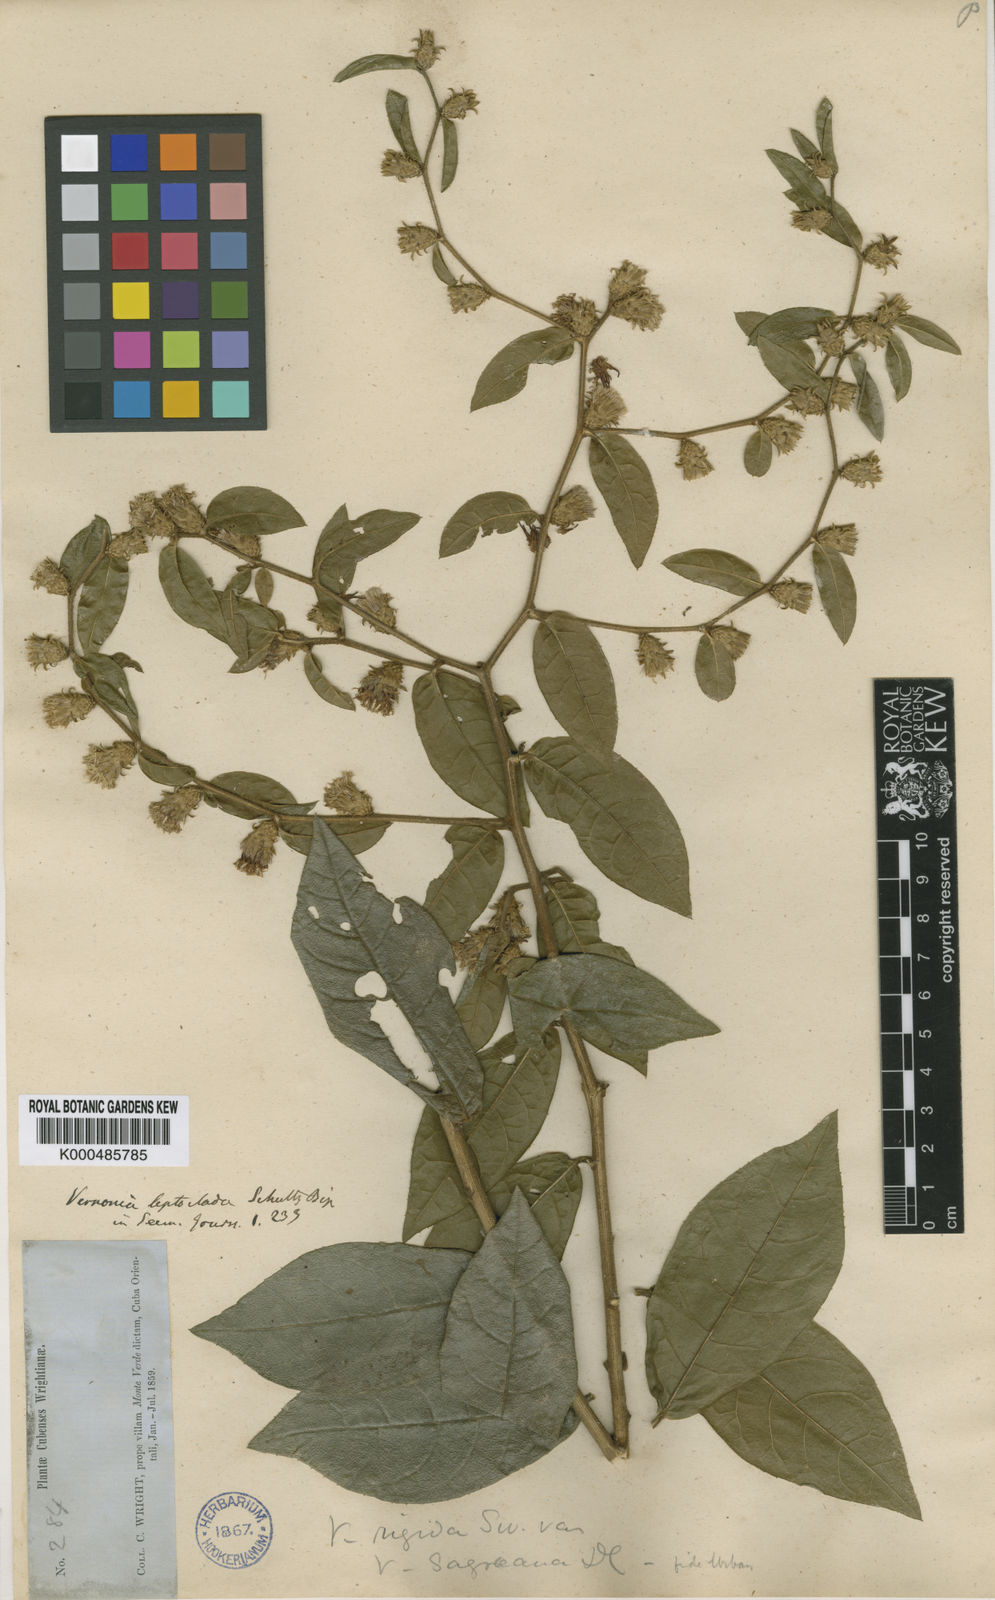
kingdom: Plantae
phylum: Tracheophyta
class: Magnoliopsida
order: Asterales
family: Asteraceae
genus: Lepidaploa
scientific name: Lepidaploa leptoclada
